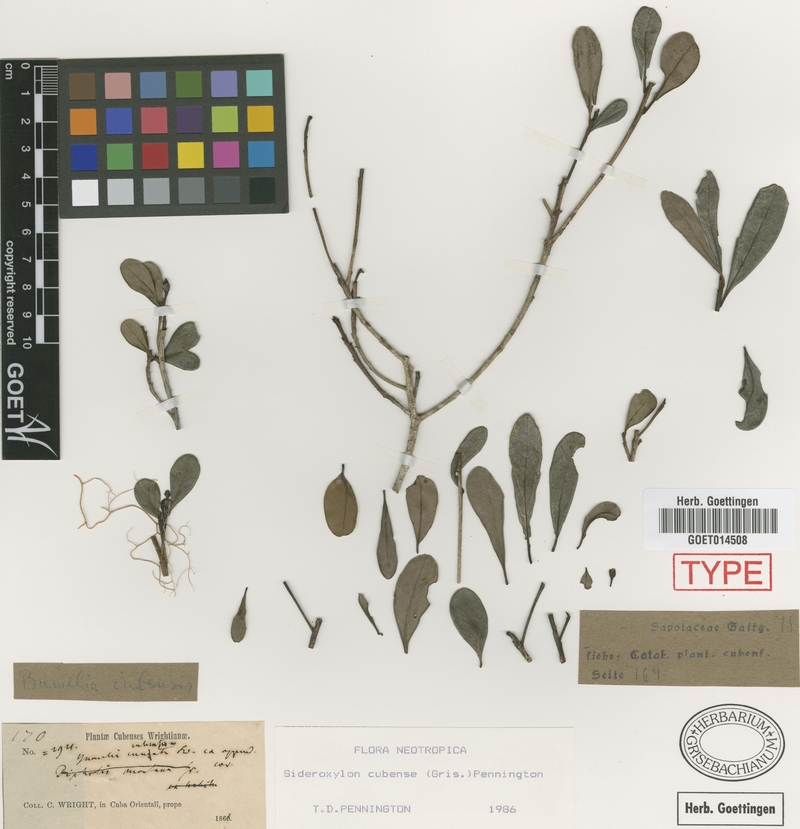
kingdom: Plantae
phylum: Tracheophyta
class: Magnoliopsida
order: Ericales
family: Sapotaceae
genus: Sideroxylon
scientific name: Sideroxylon cubense
